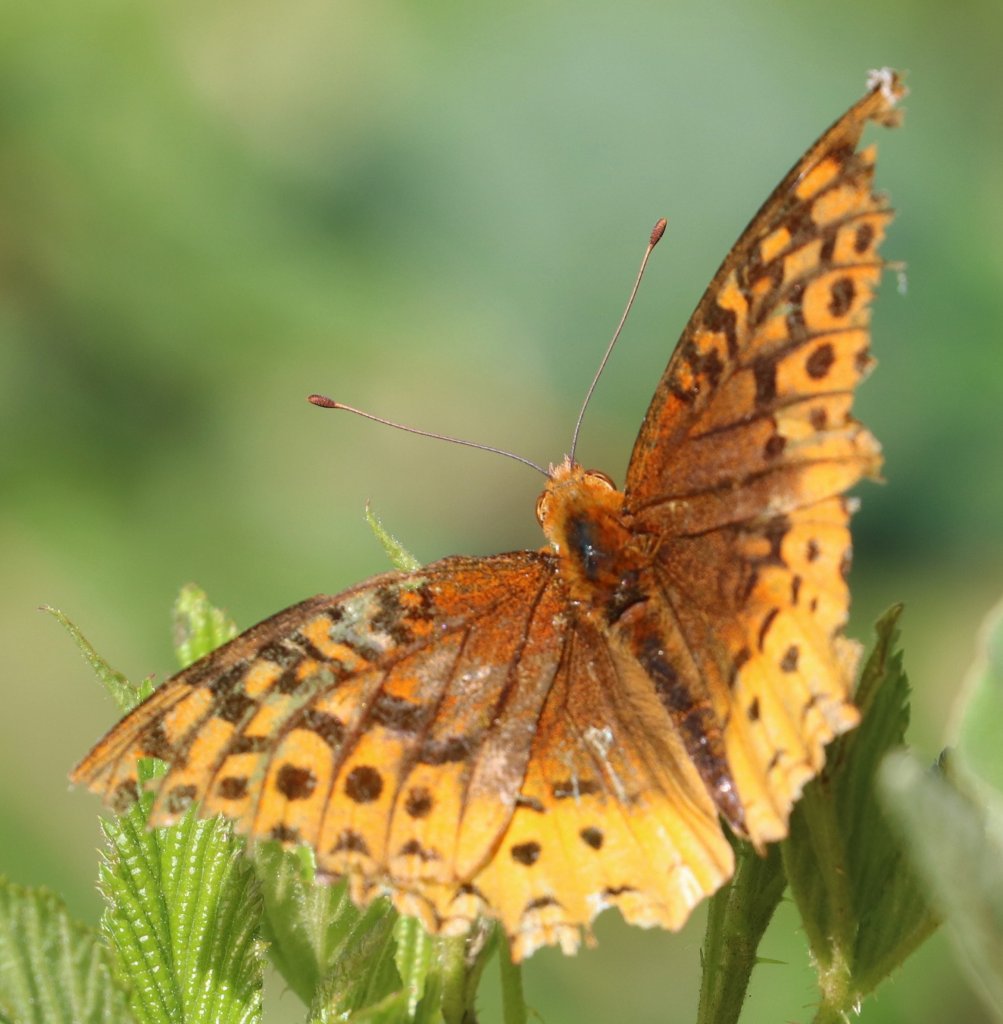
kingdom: Animalia
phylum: Arthropoda
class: Insecta
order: Lepidoptera
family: Nymphalidae
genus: Speyeria
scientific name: Speyeria cybele
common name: Great Spangled Fritillary
